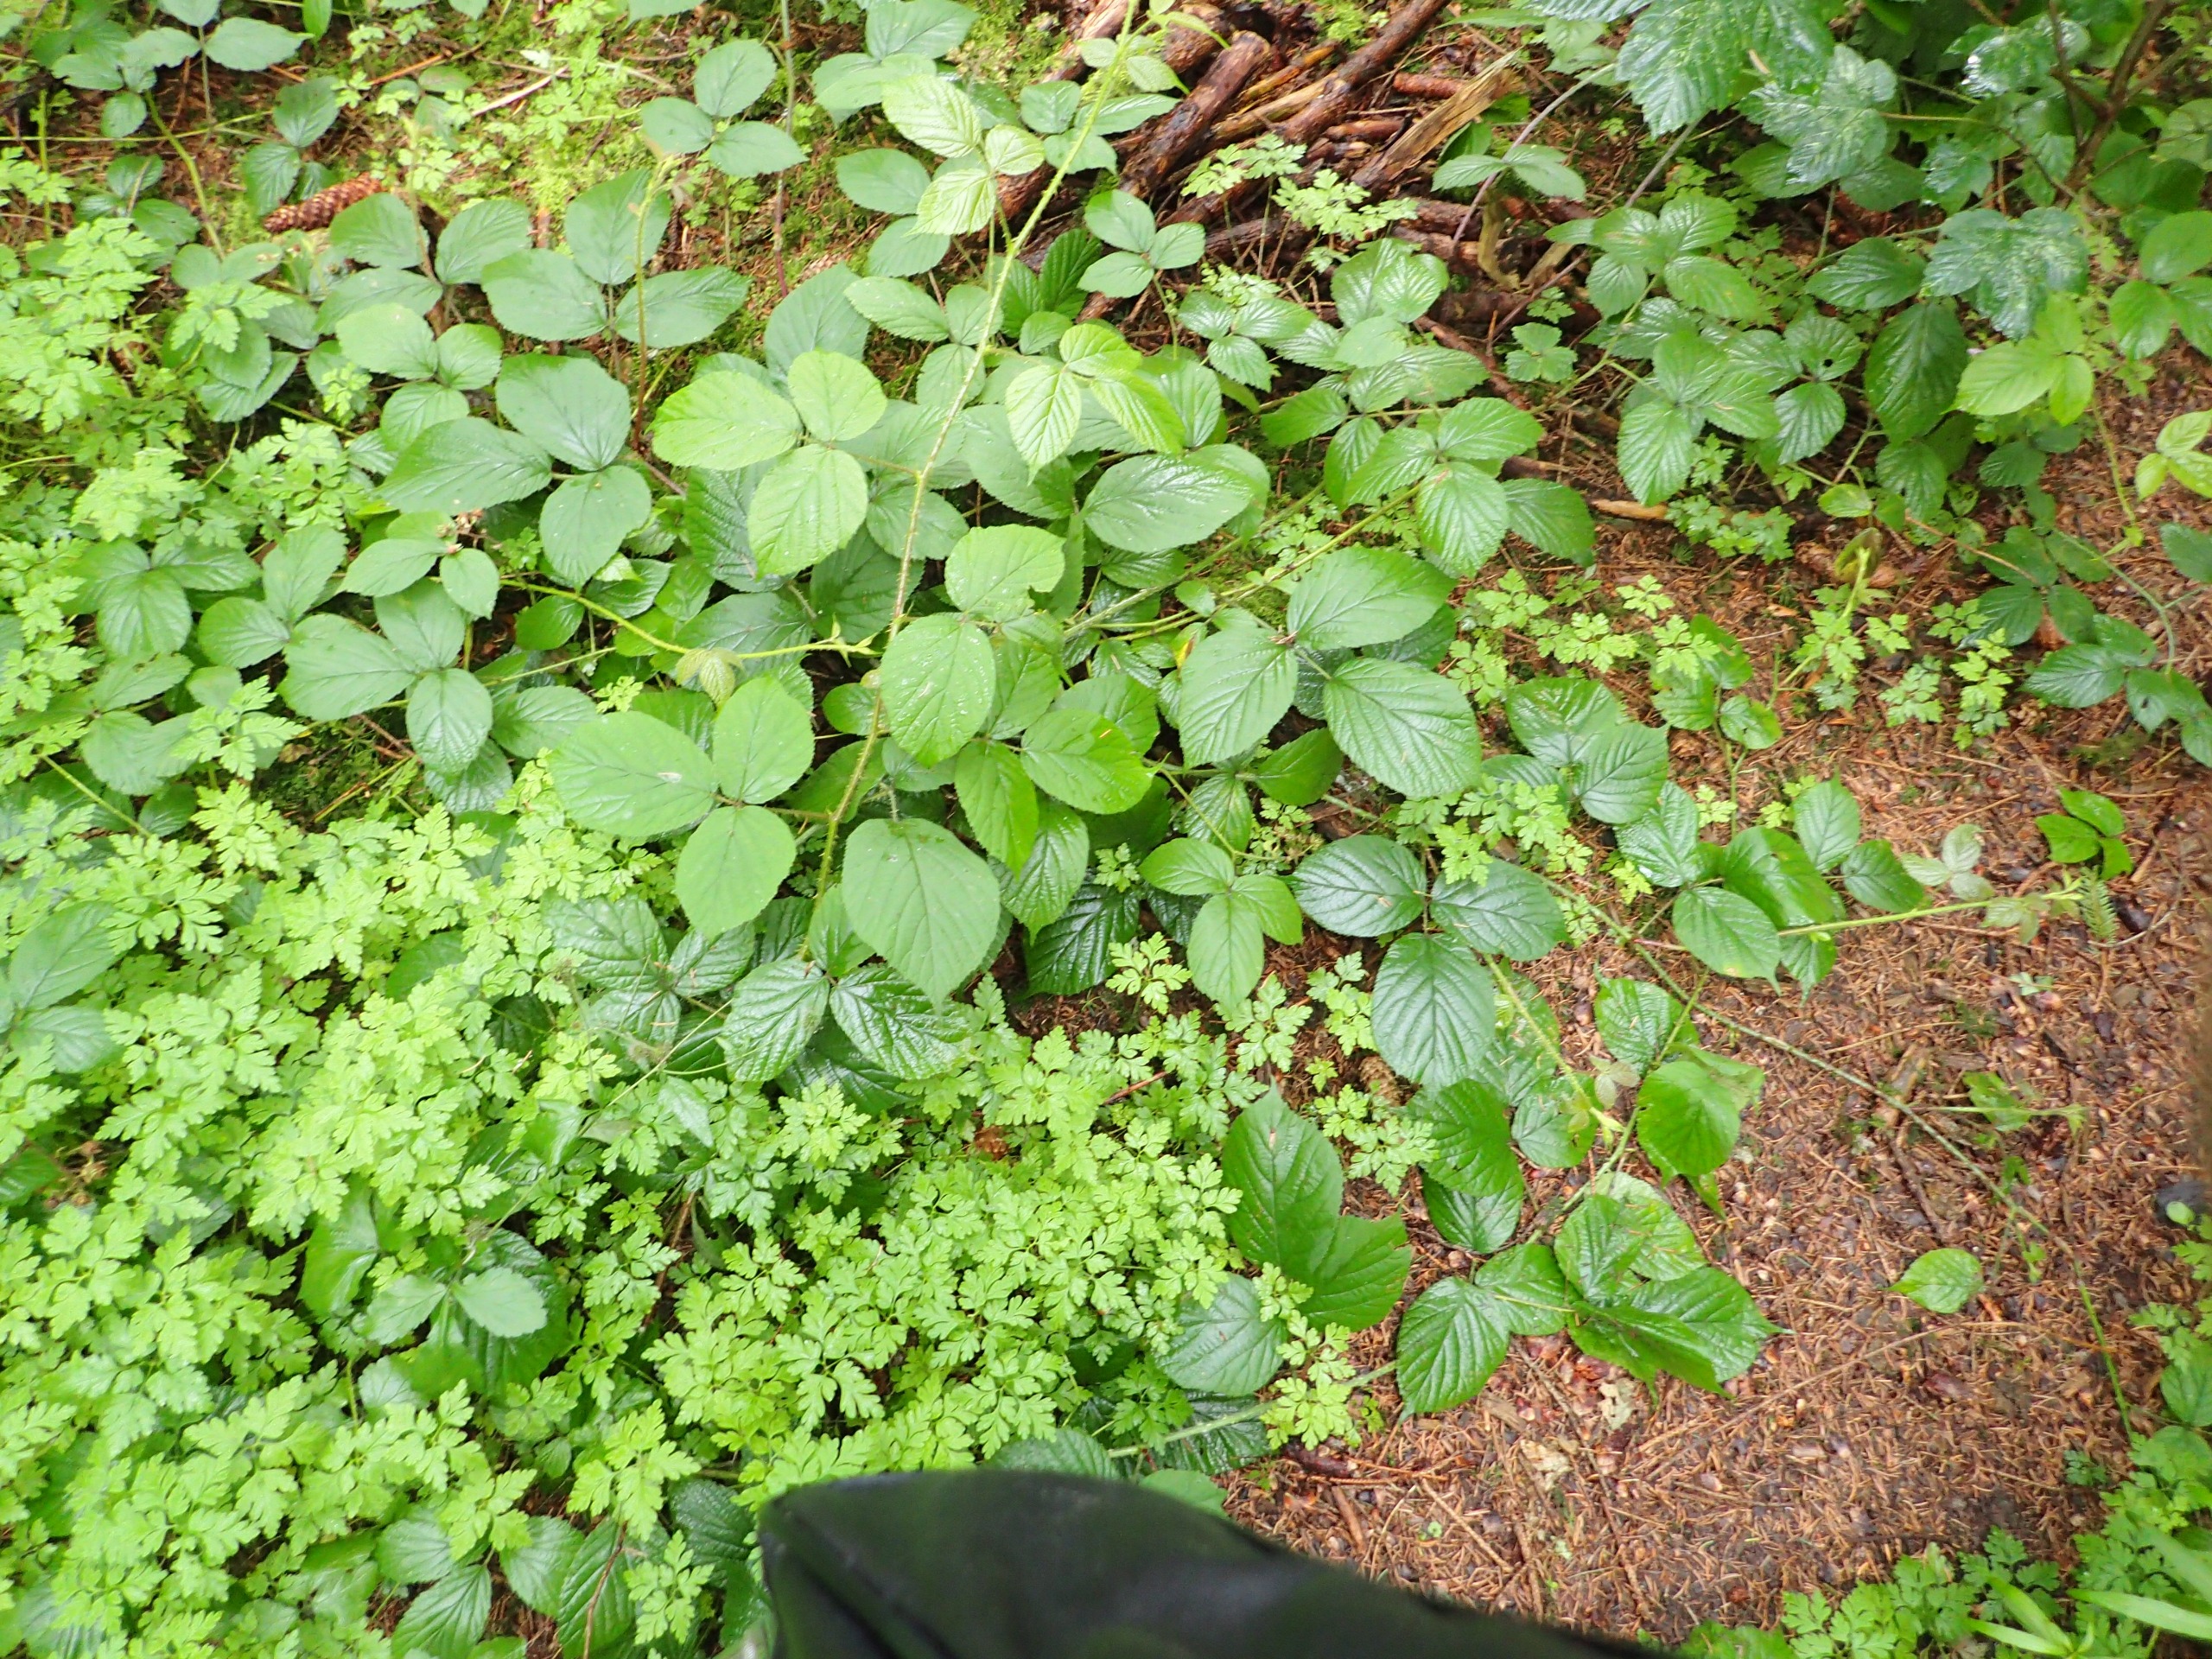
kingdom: Plantae
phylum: Tracheophyta
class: Magnoliopsida
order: Rosales
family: Rosaceae
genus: Rubus
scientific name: Rubus nigricans
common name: Trebladet brombær
